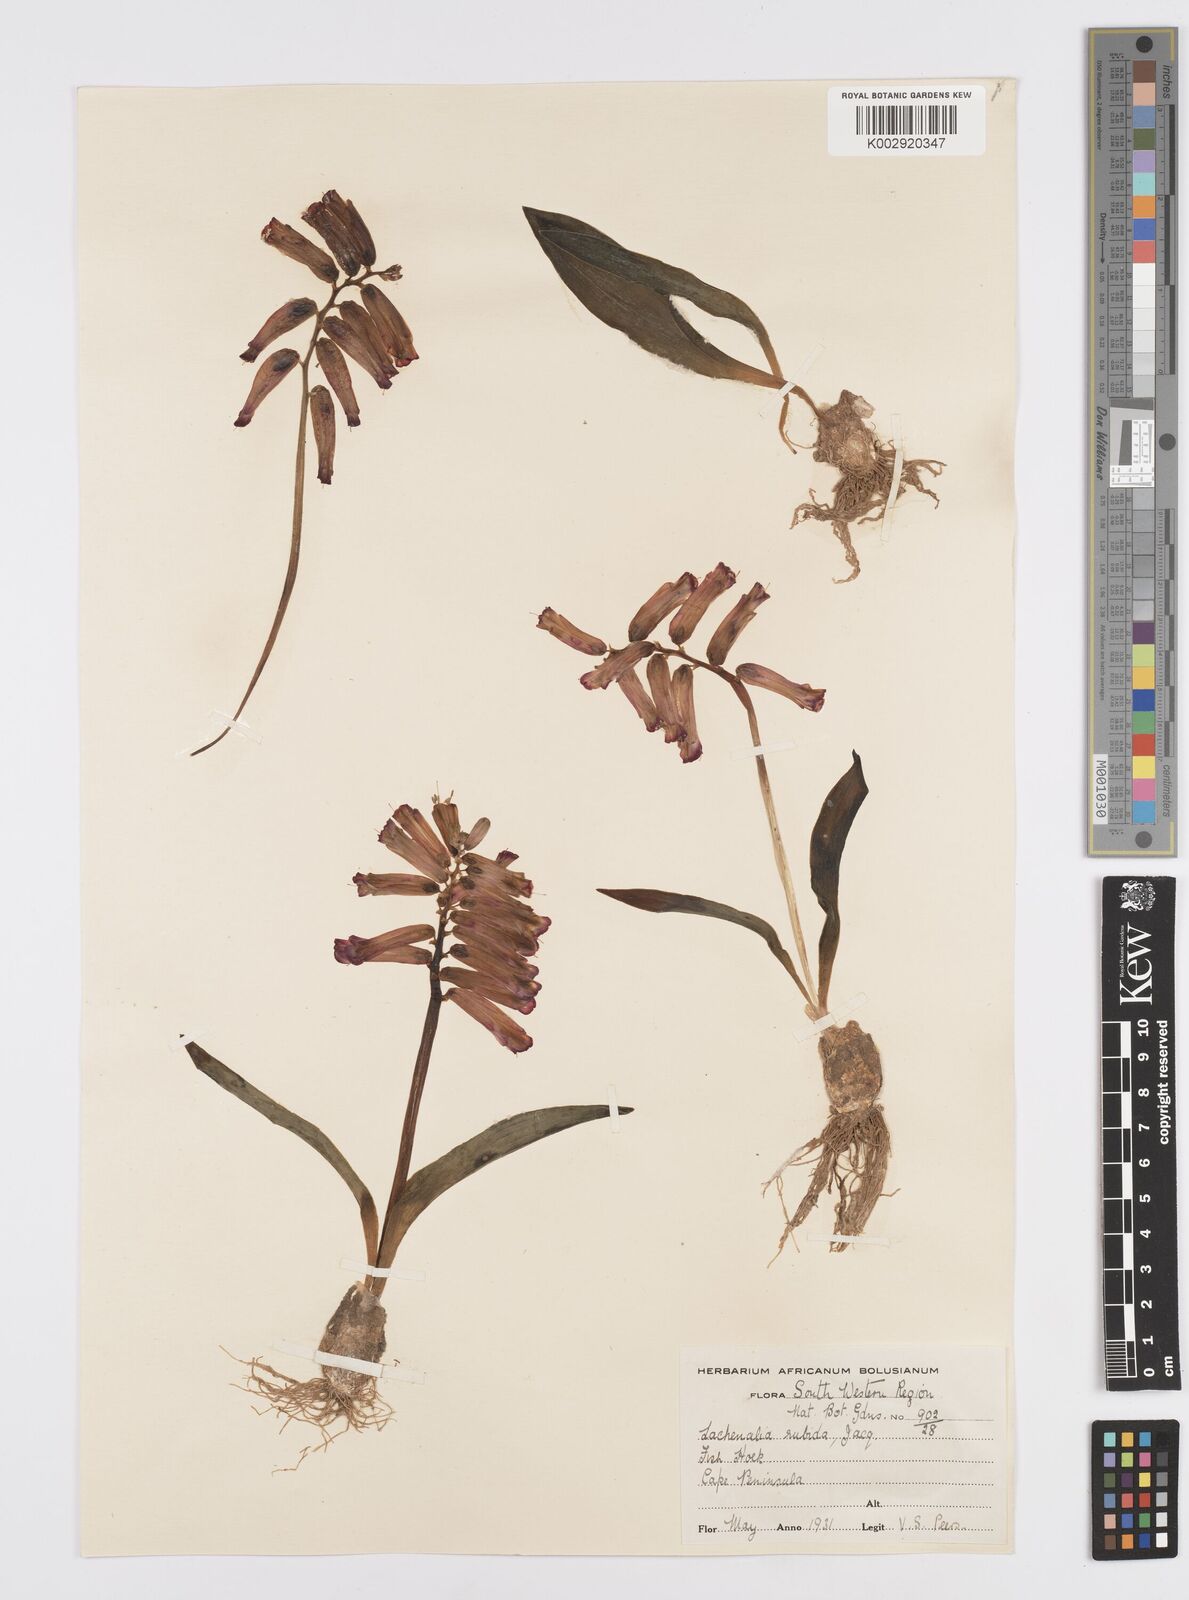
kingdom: Plantae
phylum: Tracheophyta
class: Liliopsida
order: Asparagales
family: Asparagaceae
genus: Lachenalia
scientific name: Lachenalia punctata
